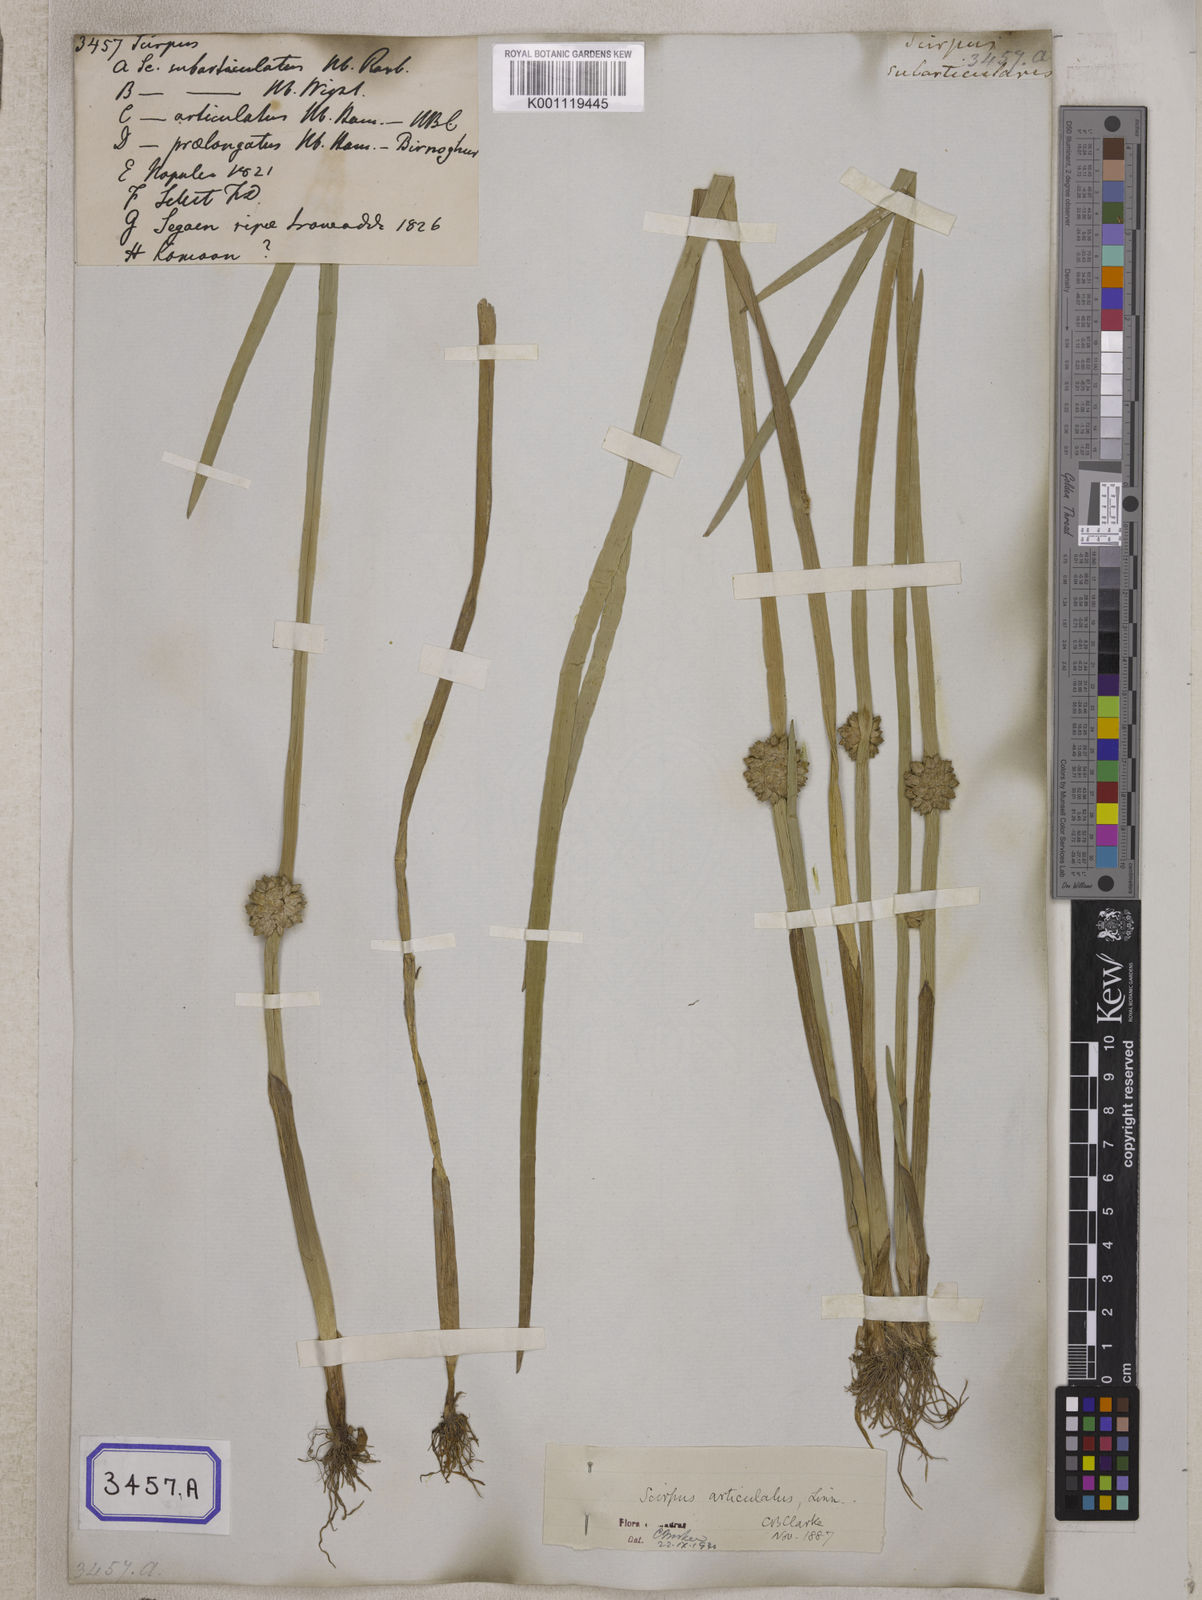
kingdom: Plantae
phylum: Tracheophyta
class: Liliopsida
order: Poales
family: Cyperaceae
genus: Scirpus
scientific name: Scirpus
